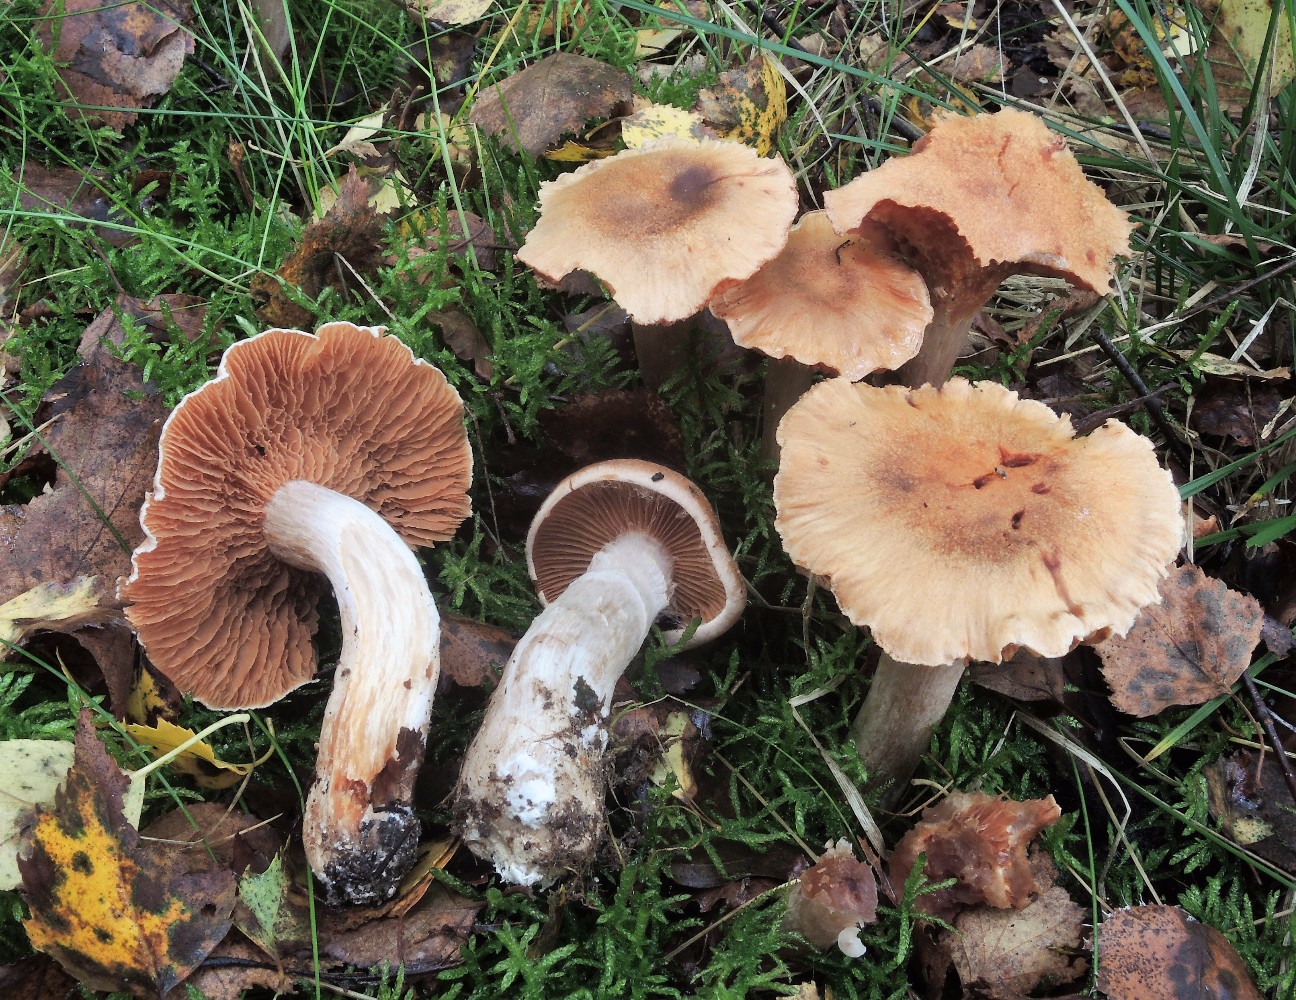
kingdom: Fungi
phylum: Basidiomycota
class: Agaricomycetes
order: Agaricales
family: Cortinariaceae
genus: Cortinarius
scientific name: Cortinarius bivelus
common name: orangebrun slørhat
